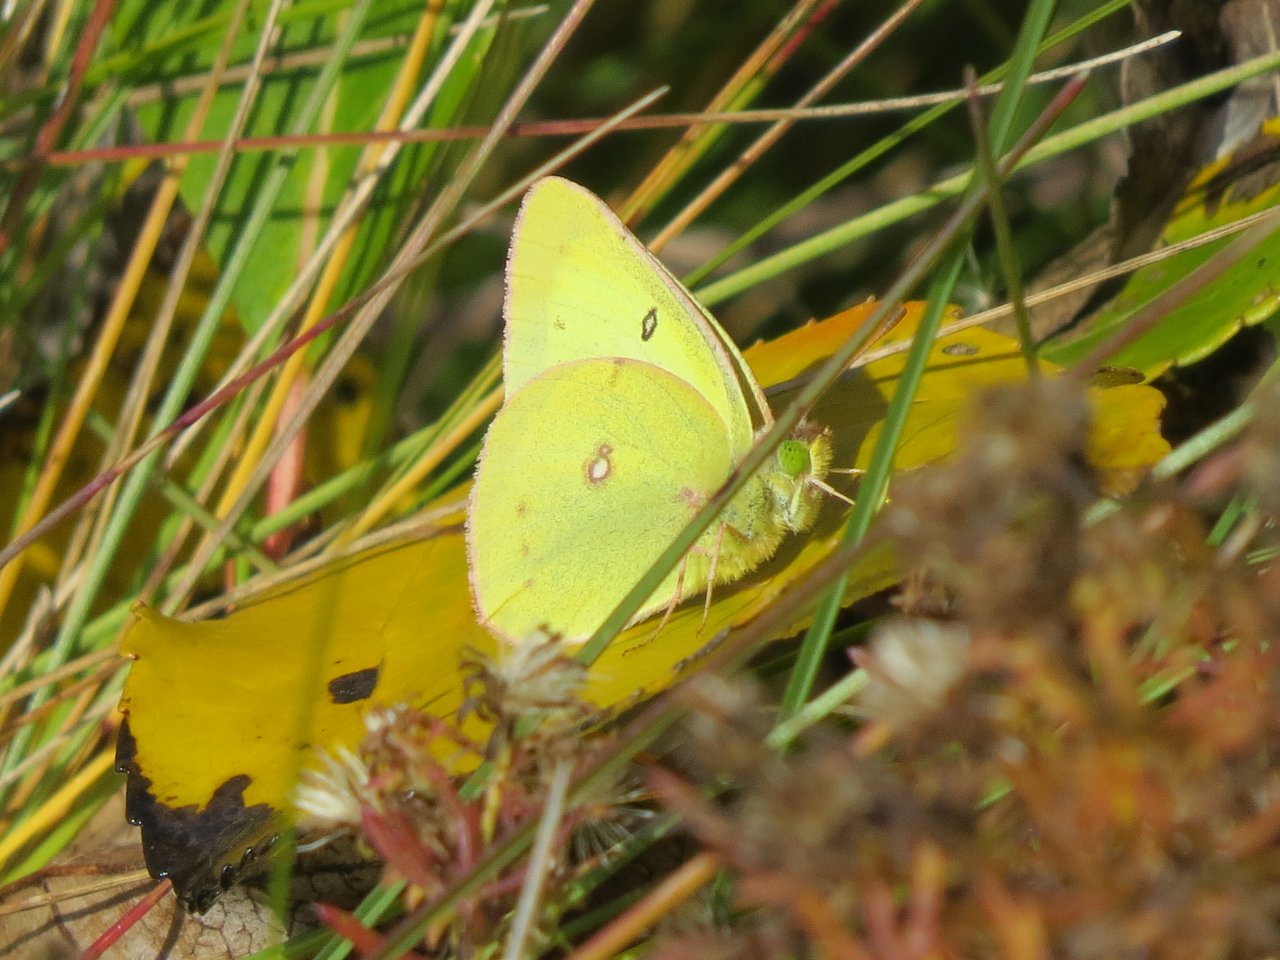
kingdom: Animalia
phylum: Arthropoda
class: Insecta
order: Lepidoptera
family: Pieridae
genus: Colias
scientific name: Colias philodice
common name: Clouded Sulphur
